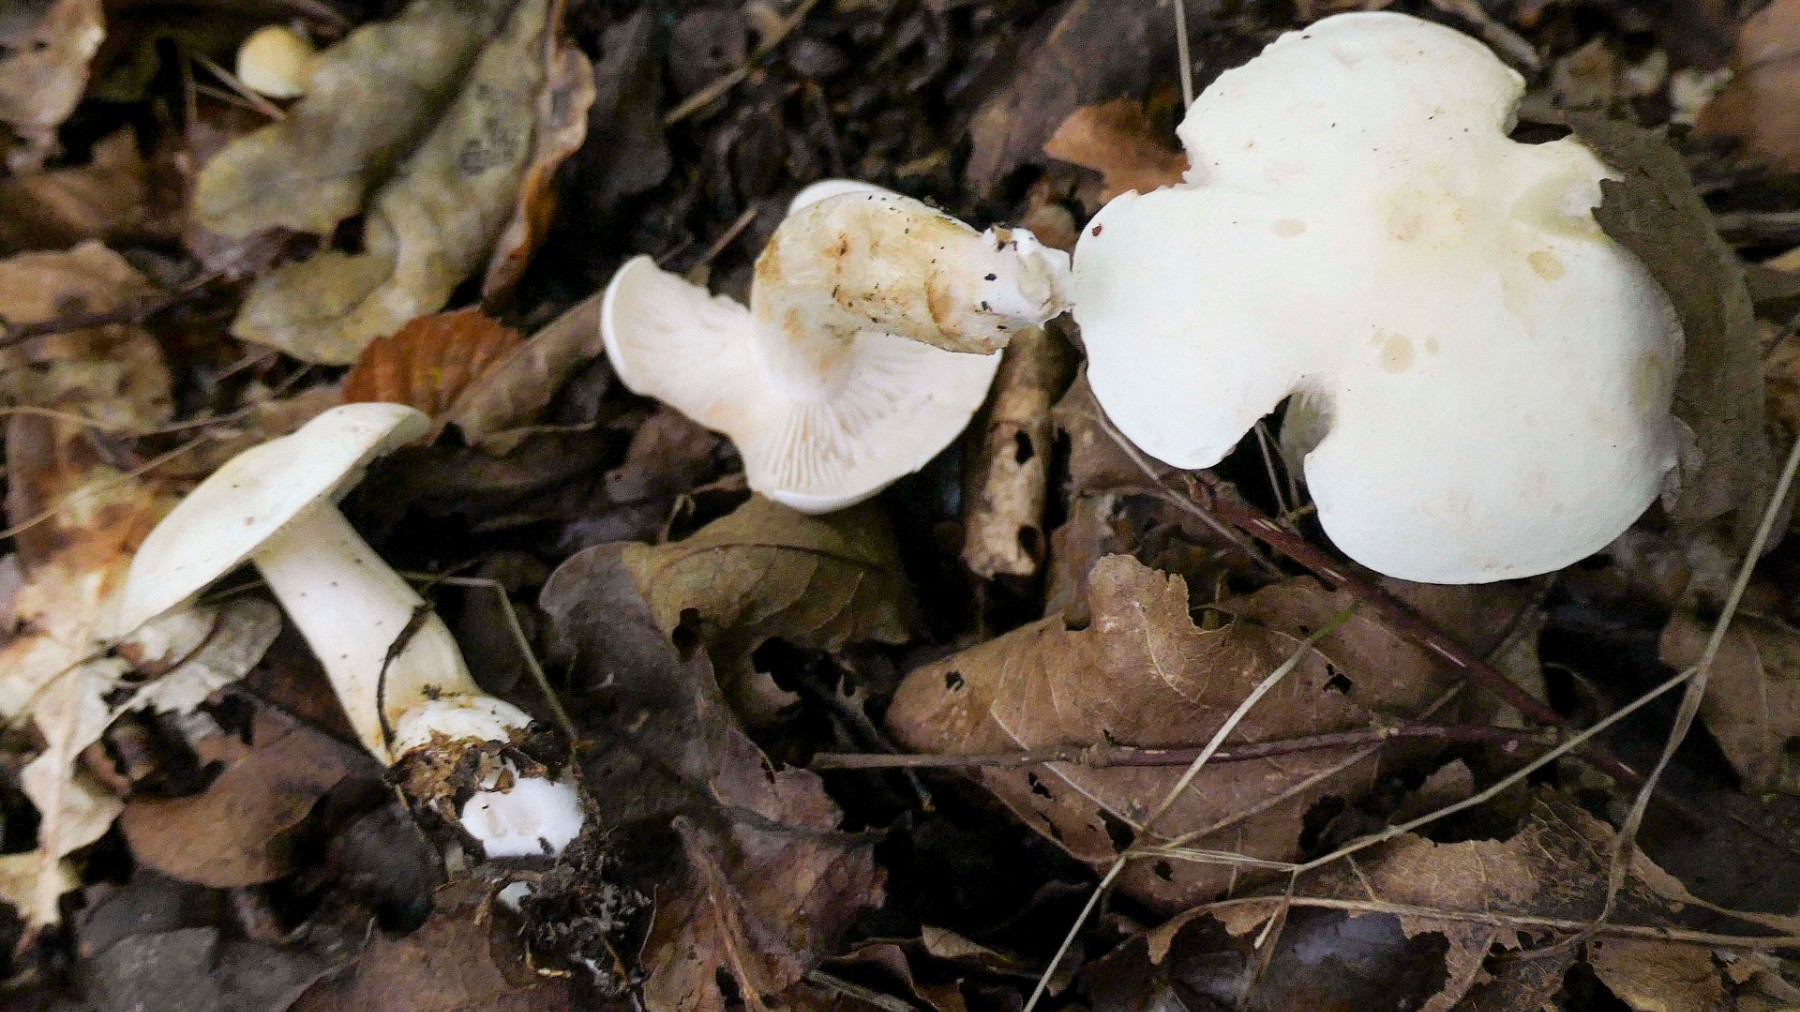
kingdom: Fungi
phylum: Basidiomycota
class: Agaricomycetes
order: Agaricales
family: Tricholomataceae
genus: Tricholoma
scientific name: Tricholoma album
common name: honning-ridderhat
